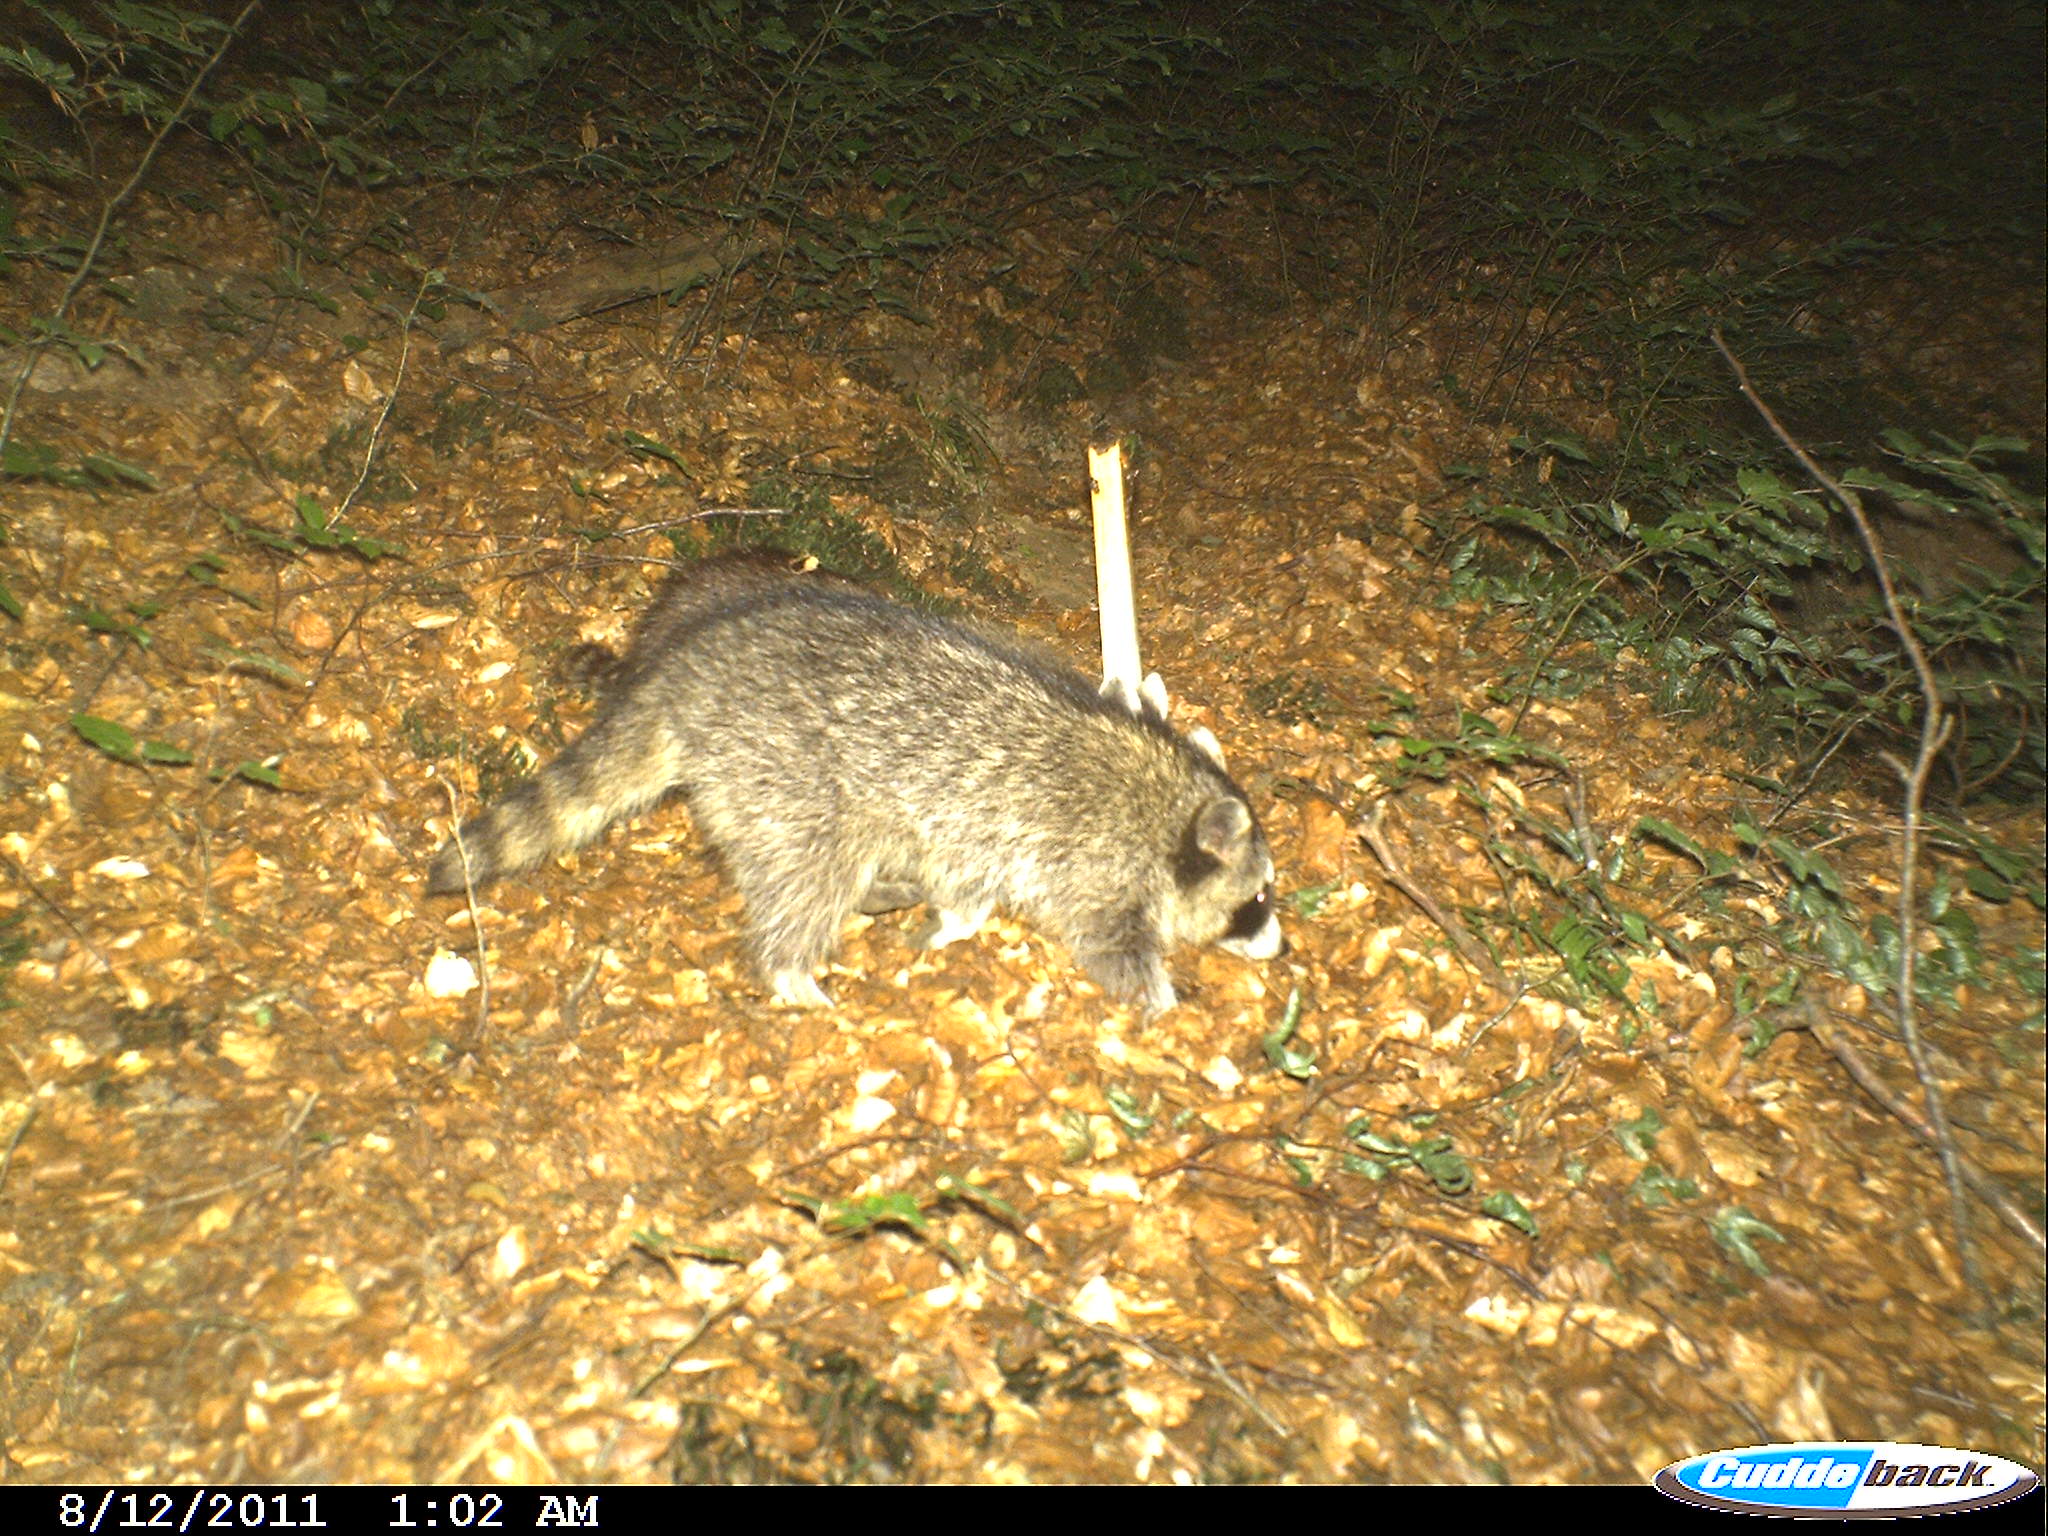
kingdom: Animalia
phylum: Chordata
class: Mammalia
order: Carnivora
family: Procyonidae
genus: Procyon
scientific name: Procyon lotor
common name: Raccoon
